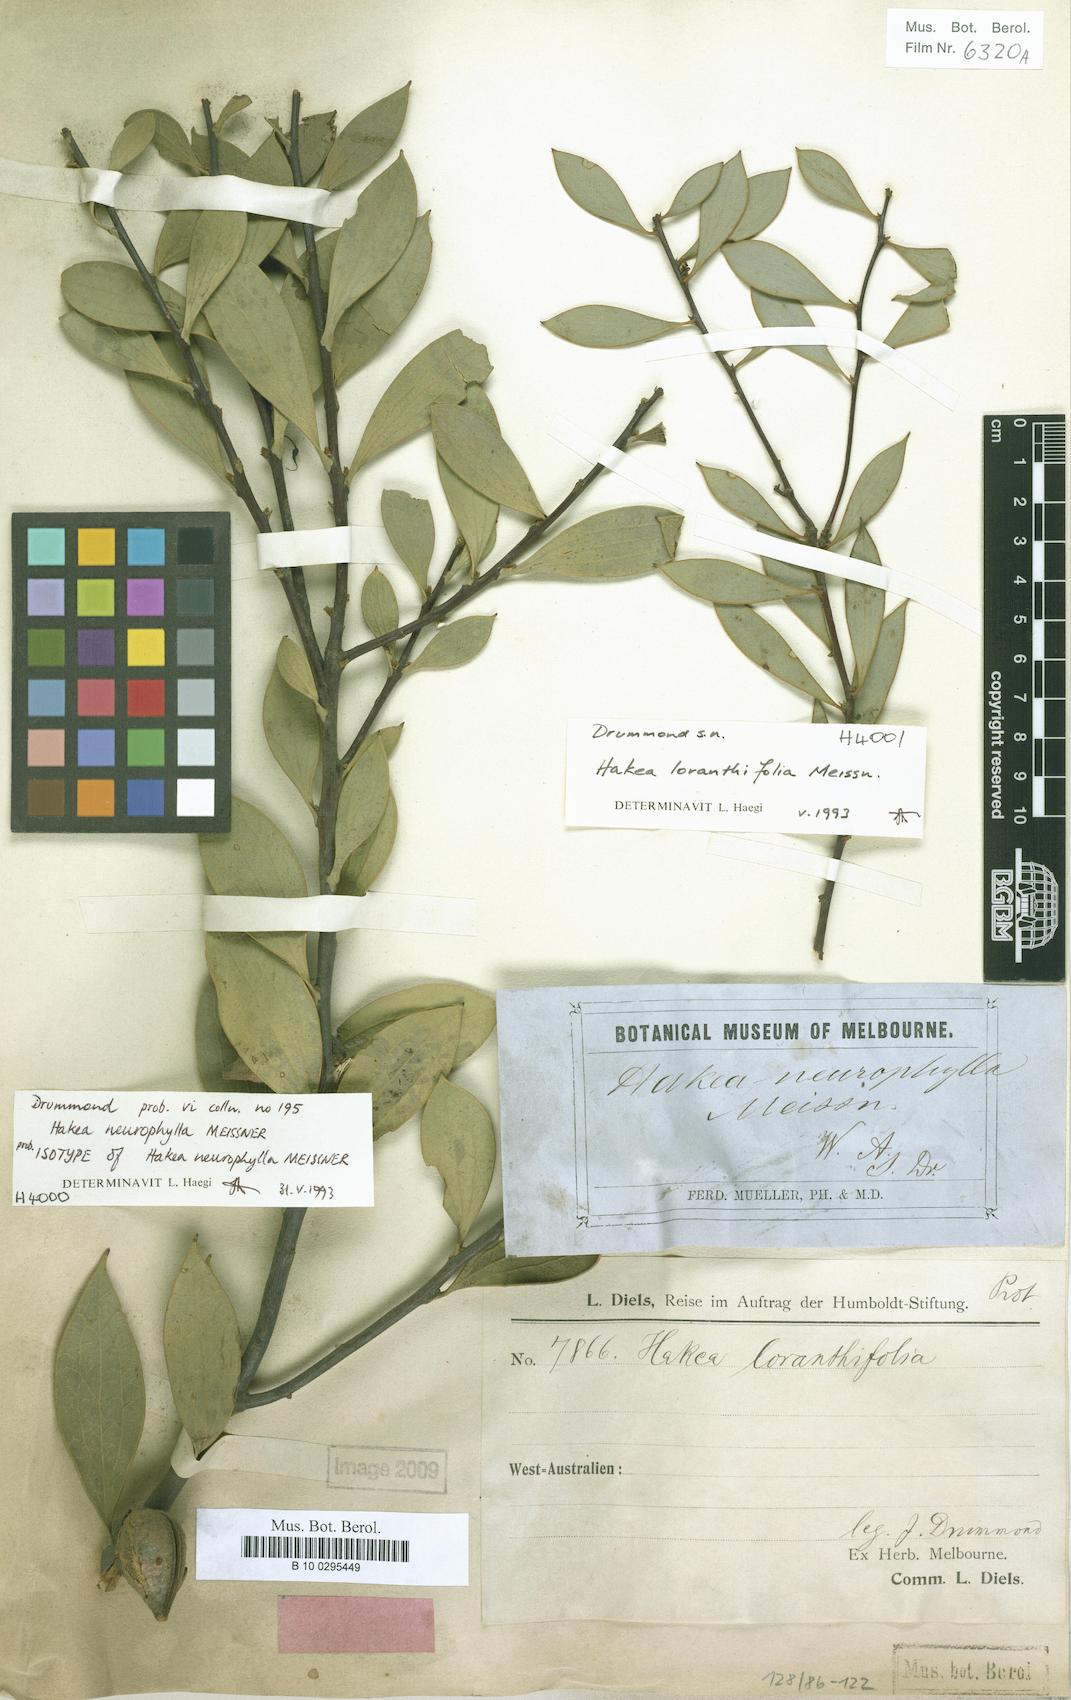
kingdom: Plantae
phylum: Tracheophyta
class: Magnoliopsida
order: Proteales
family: Proteaceae
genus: Hakea
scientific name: Hakea loranthifolia
